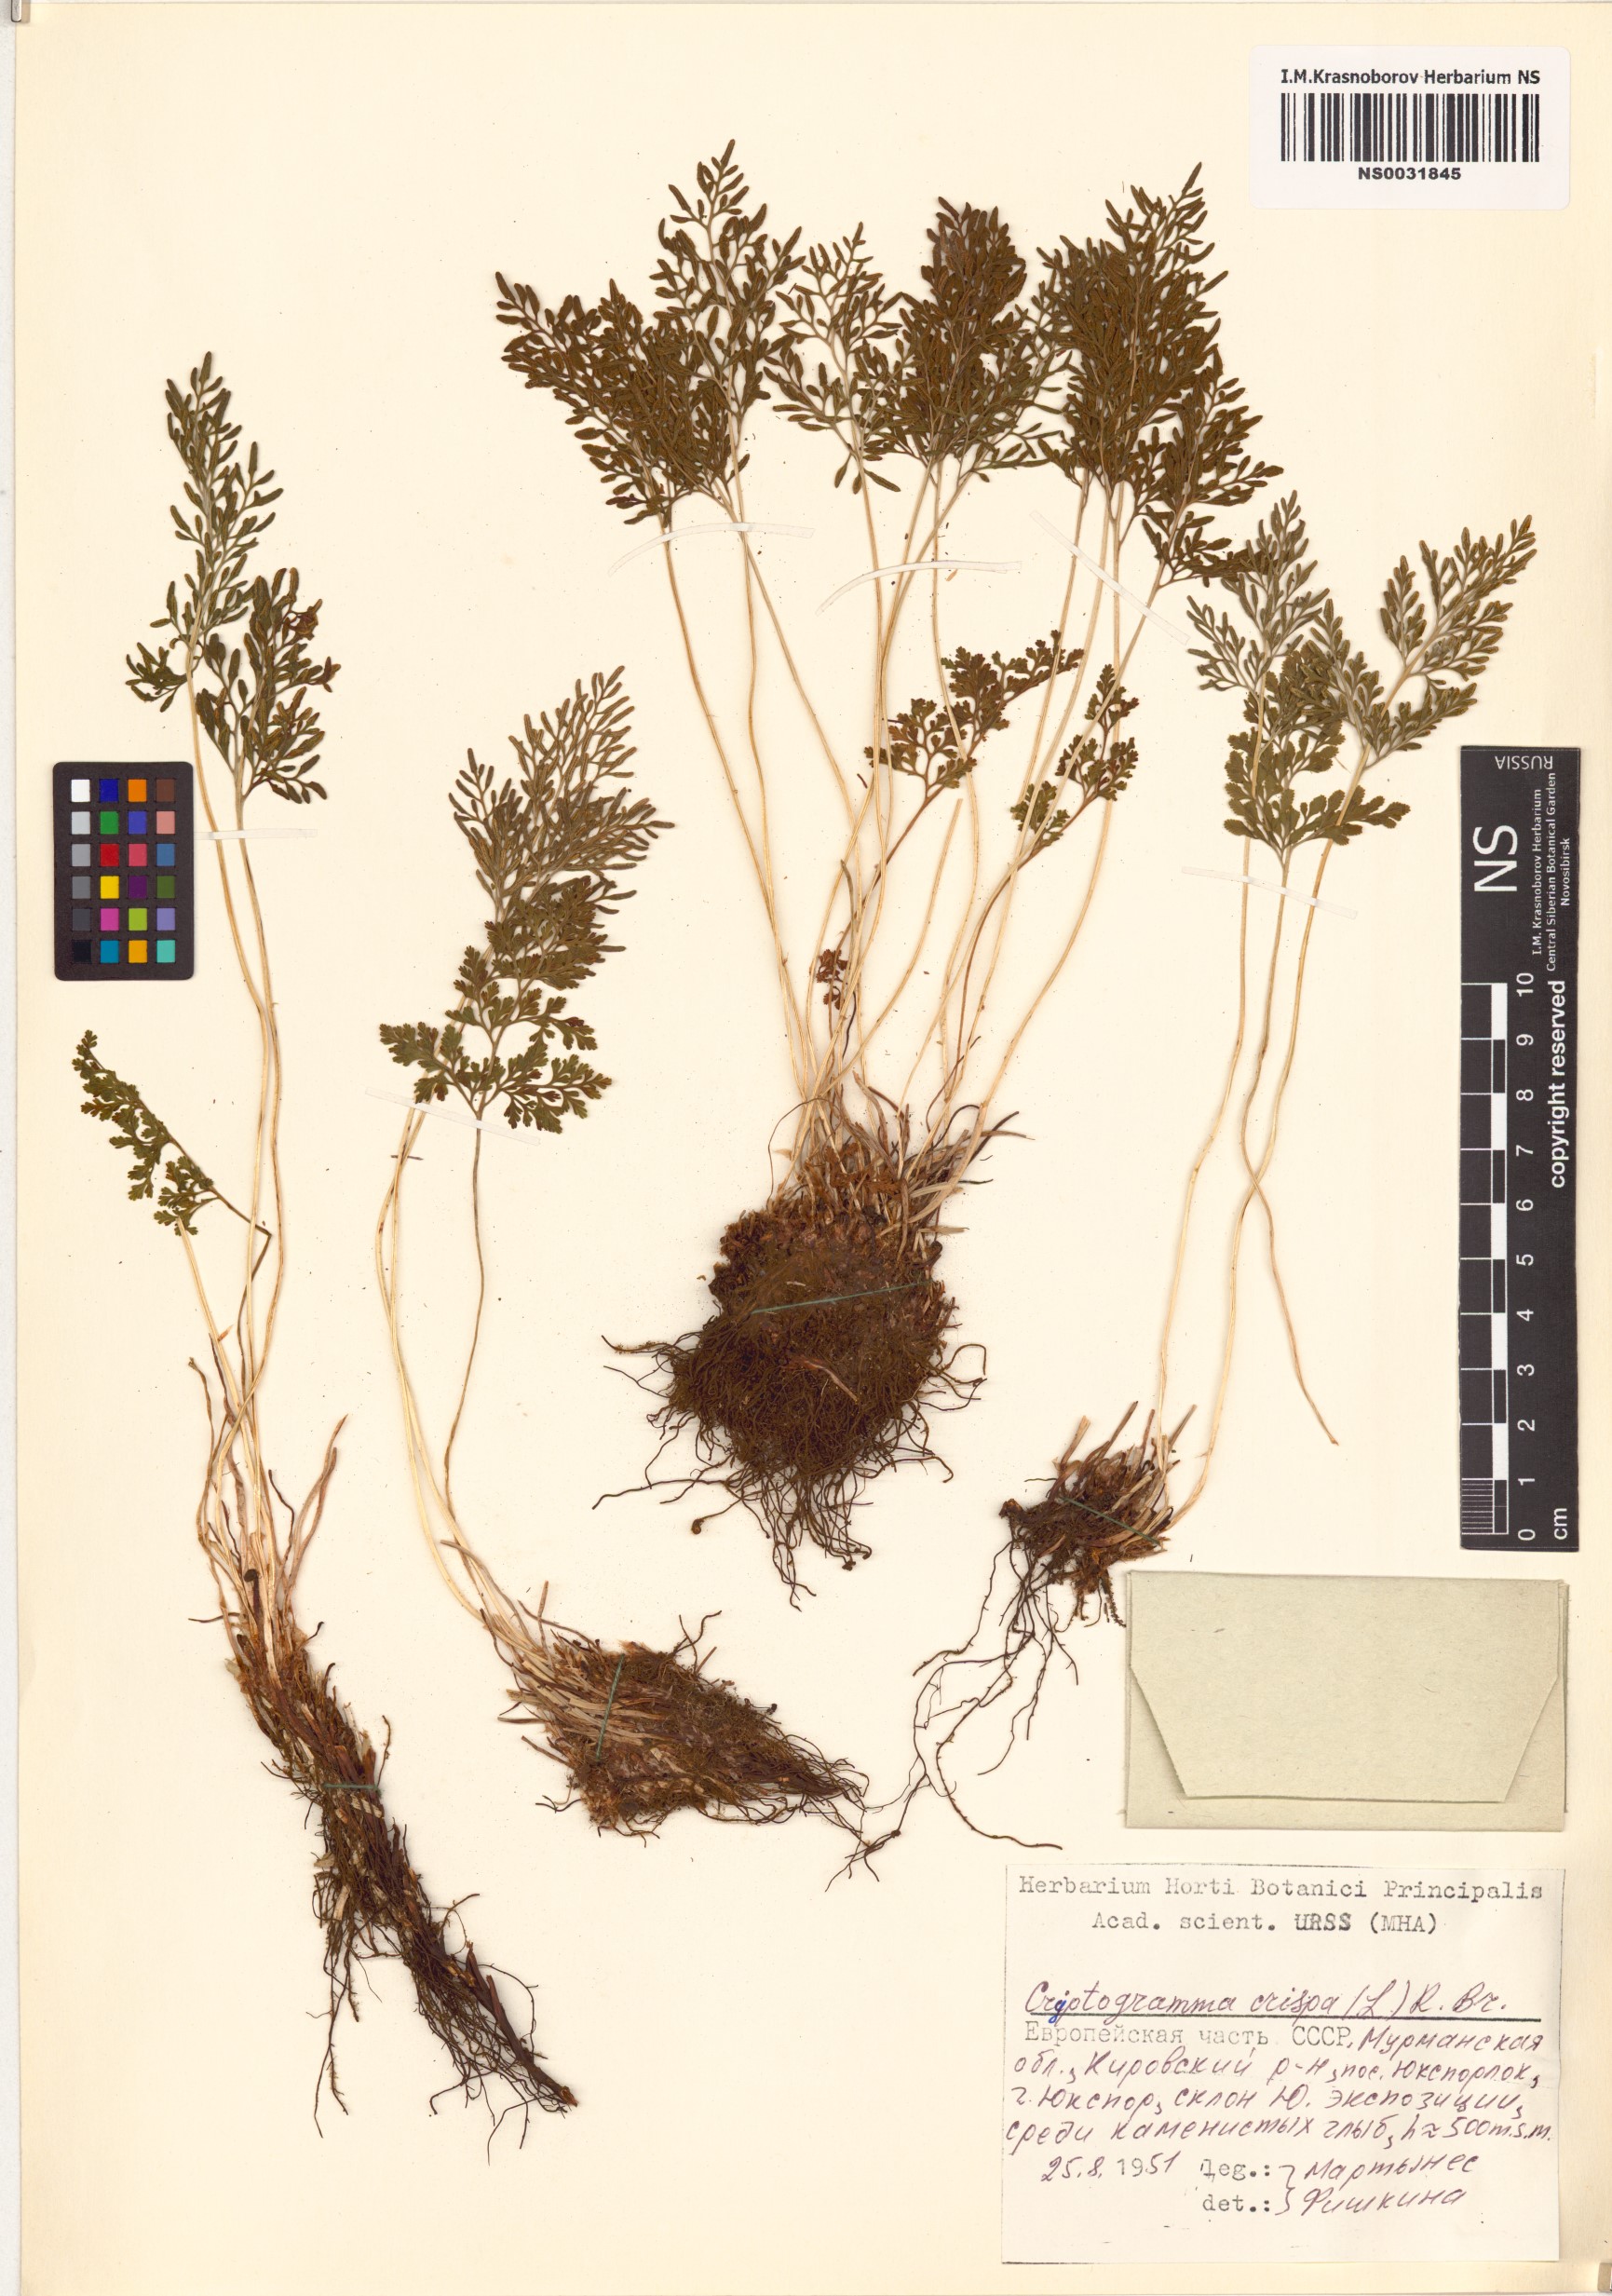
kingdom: Plantae
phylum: Tracheophyta
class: Polypodiopsida
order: Polypodiales
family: Pteridaceae
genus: Cryptogramma
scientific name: Cryptogramma crispa
